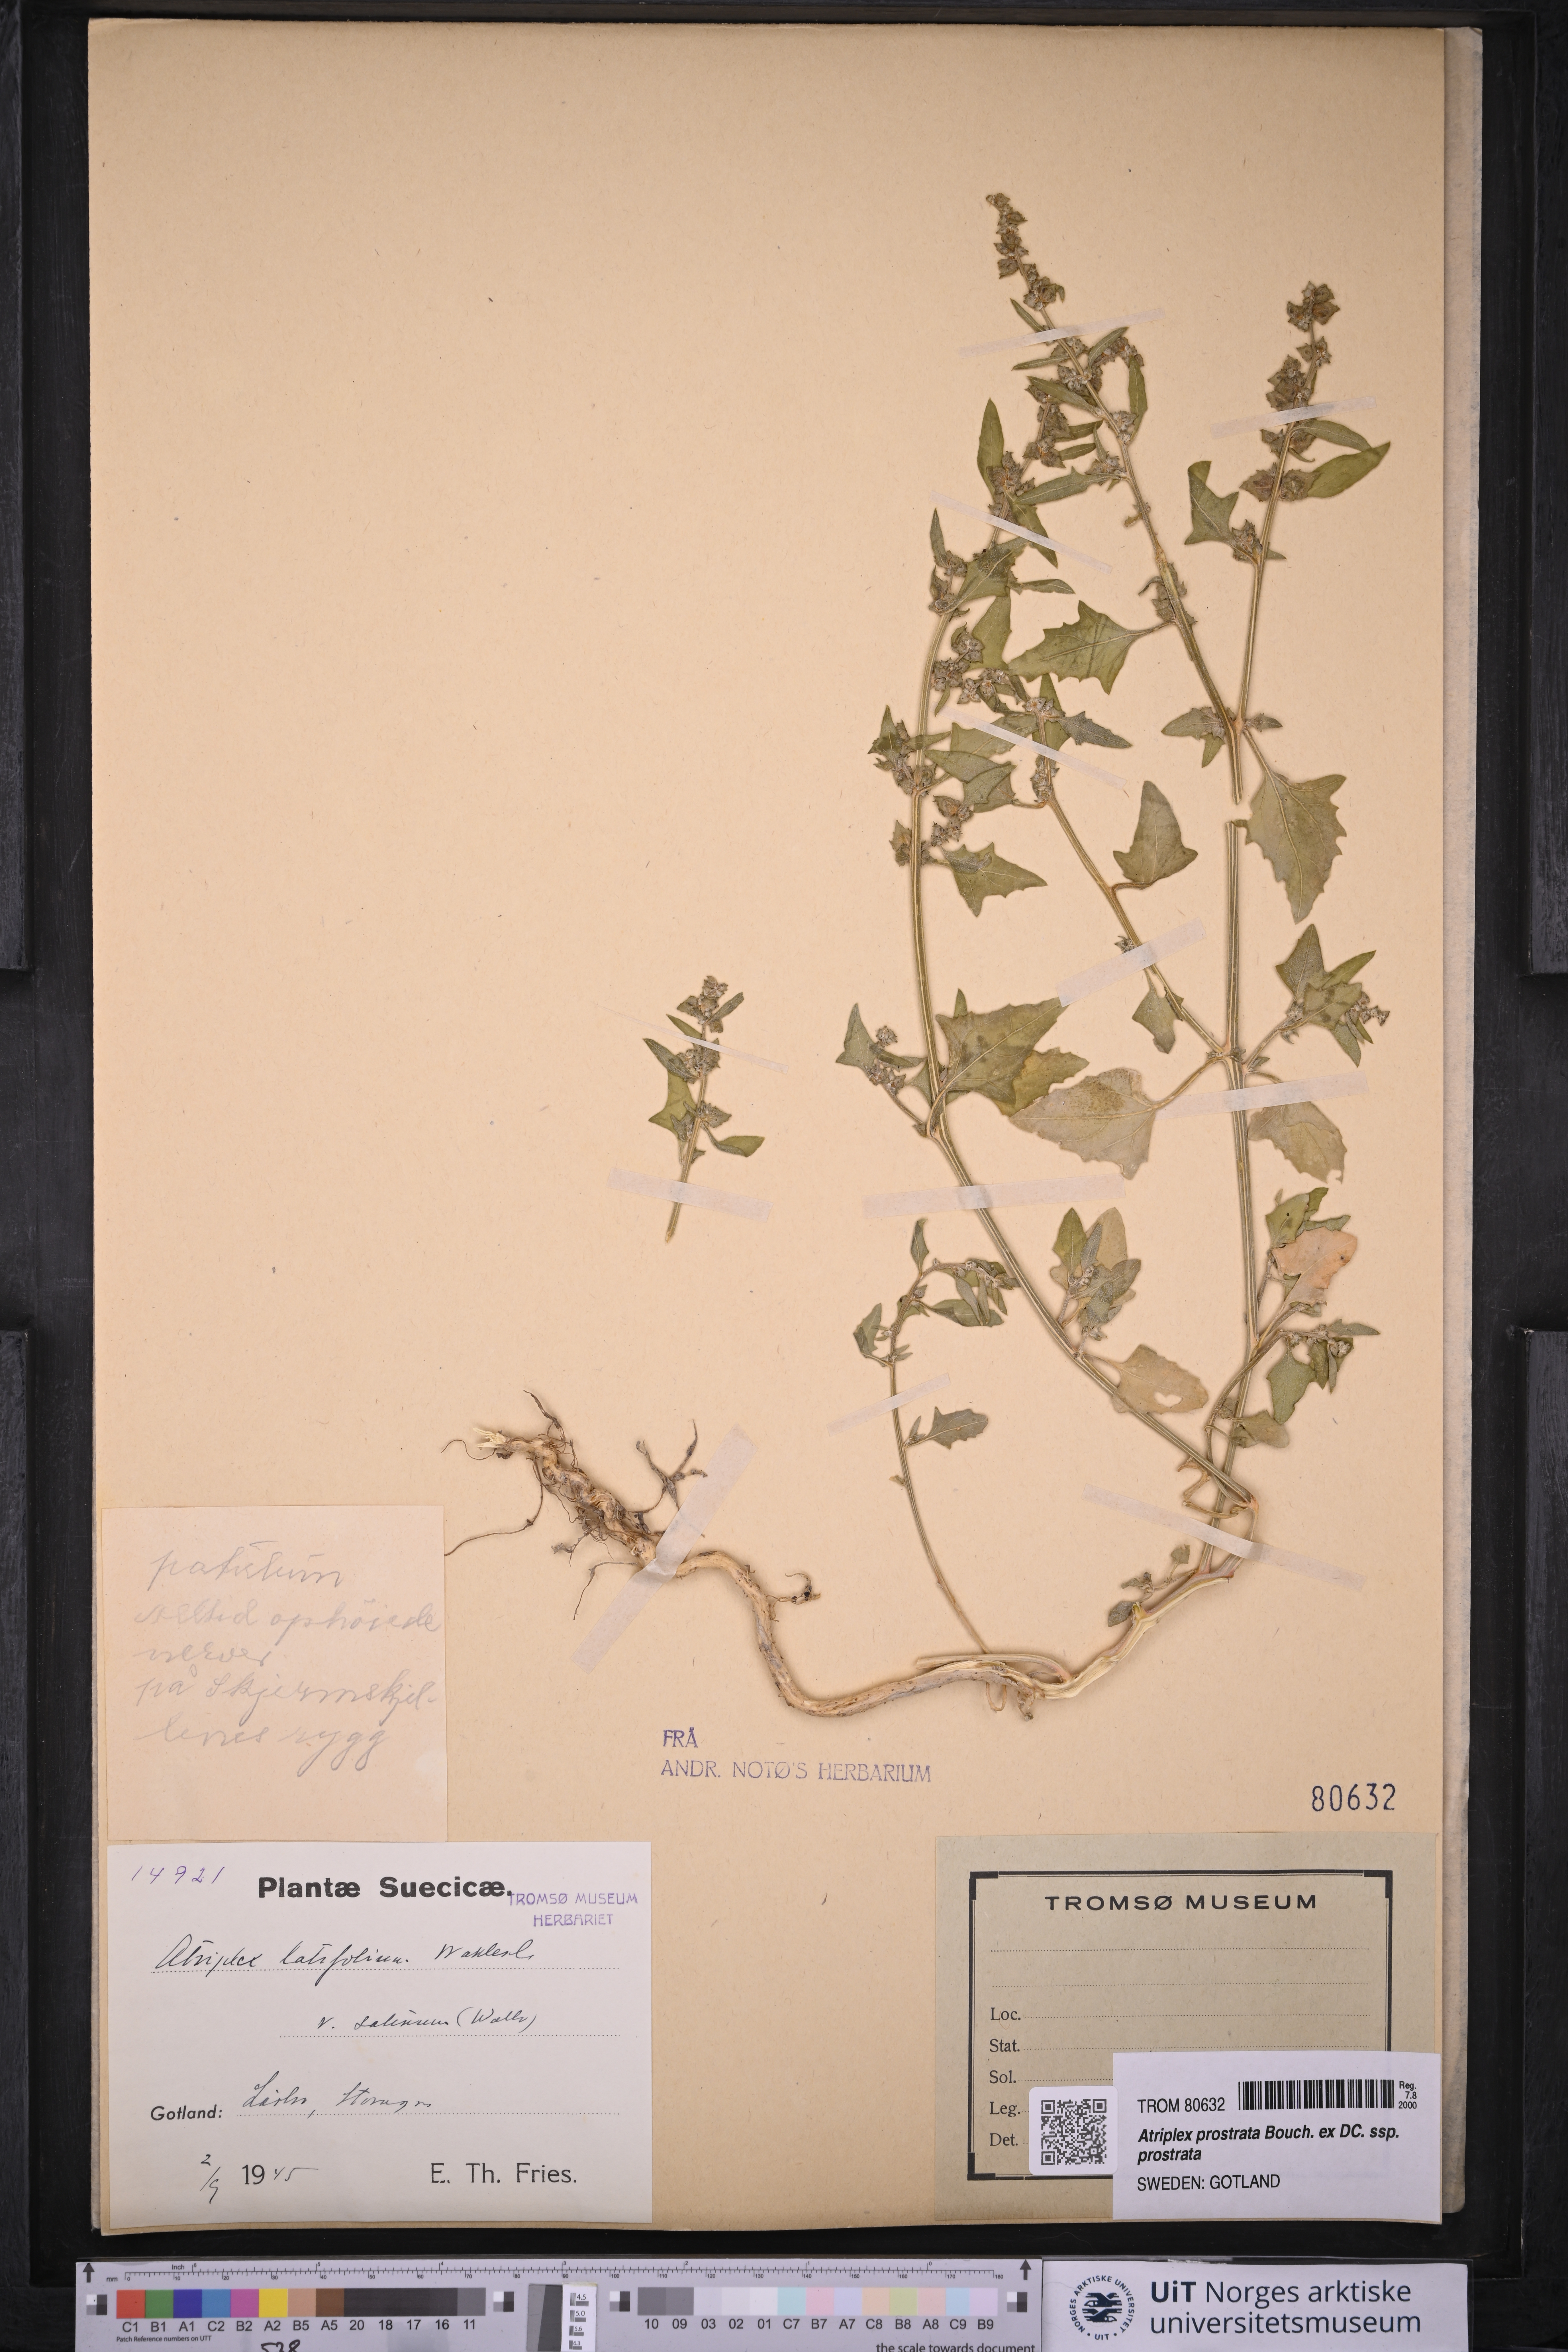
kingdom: Plantae
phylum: Tracheophyta
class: Magnoliopsida
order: Caryophyllales
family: Amaranthaceae
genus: Atriplex
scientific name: Atriplex prostrata
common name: Spear-leaved orache
